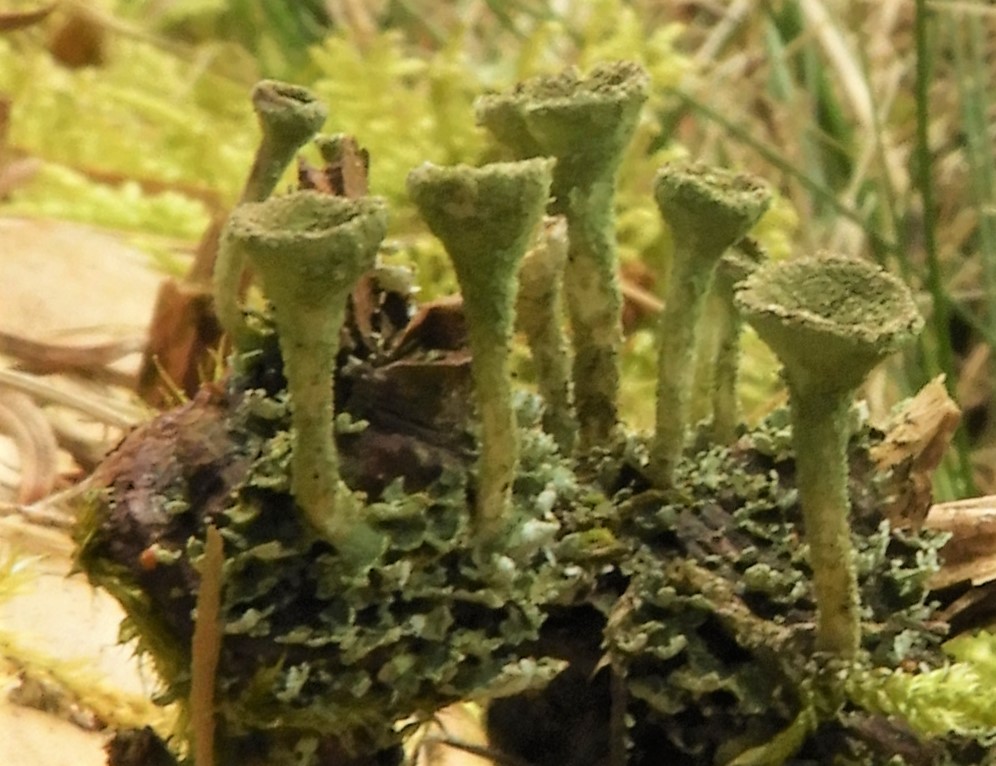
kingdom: Fungi
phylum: Ascomycota
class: Lecanoromycetes
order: Lecanorales
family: Cladoniaceae
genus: Cladonia
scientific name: Cladonia
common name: brungrøn bægerlav
